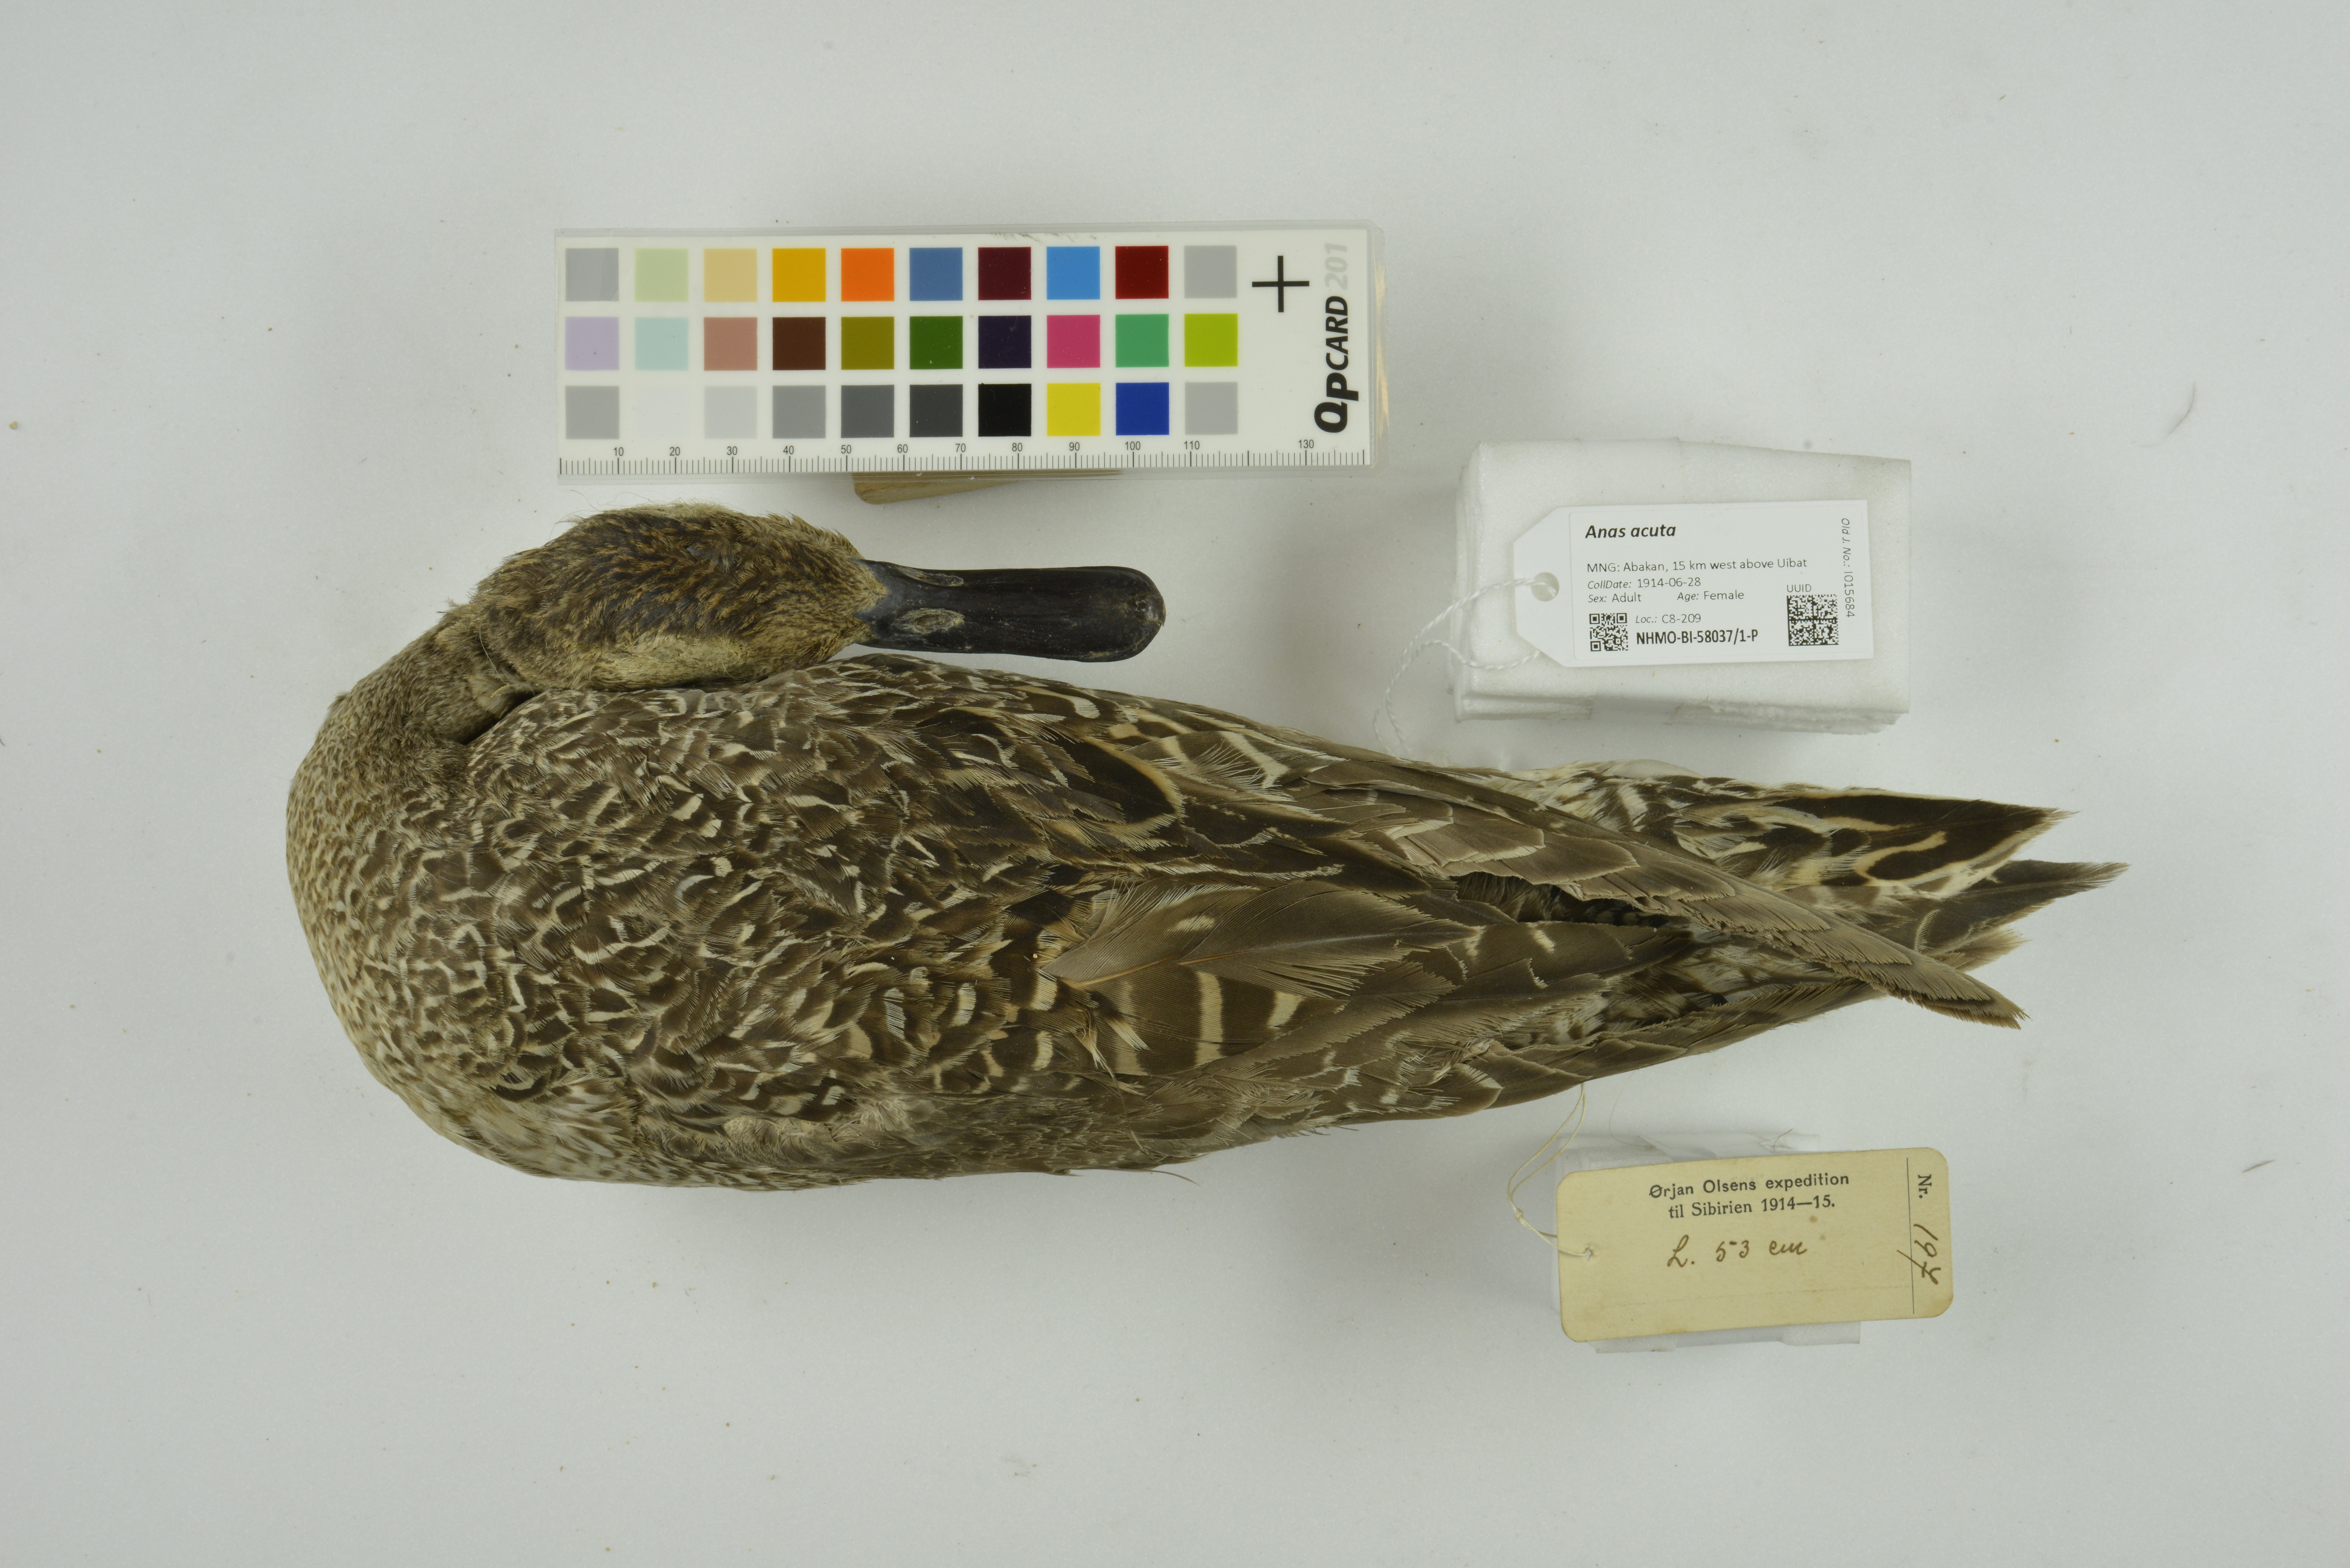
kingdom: Animalia
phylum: Chordata
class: Aves
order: Anseriformes
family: Anatidae
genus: Anas
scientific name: Anas acuta
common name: Northern pintail
